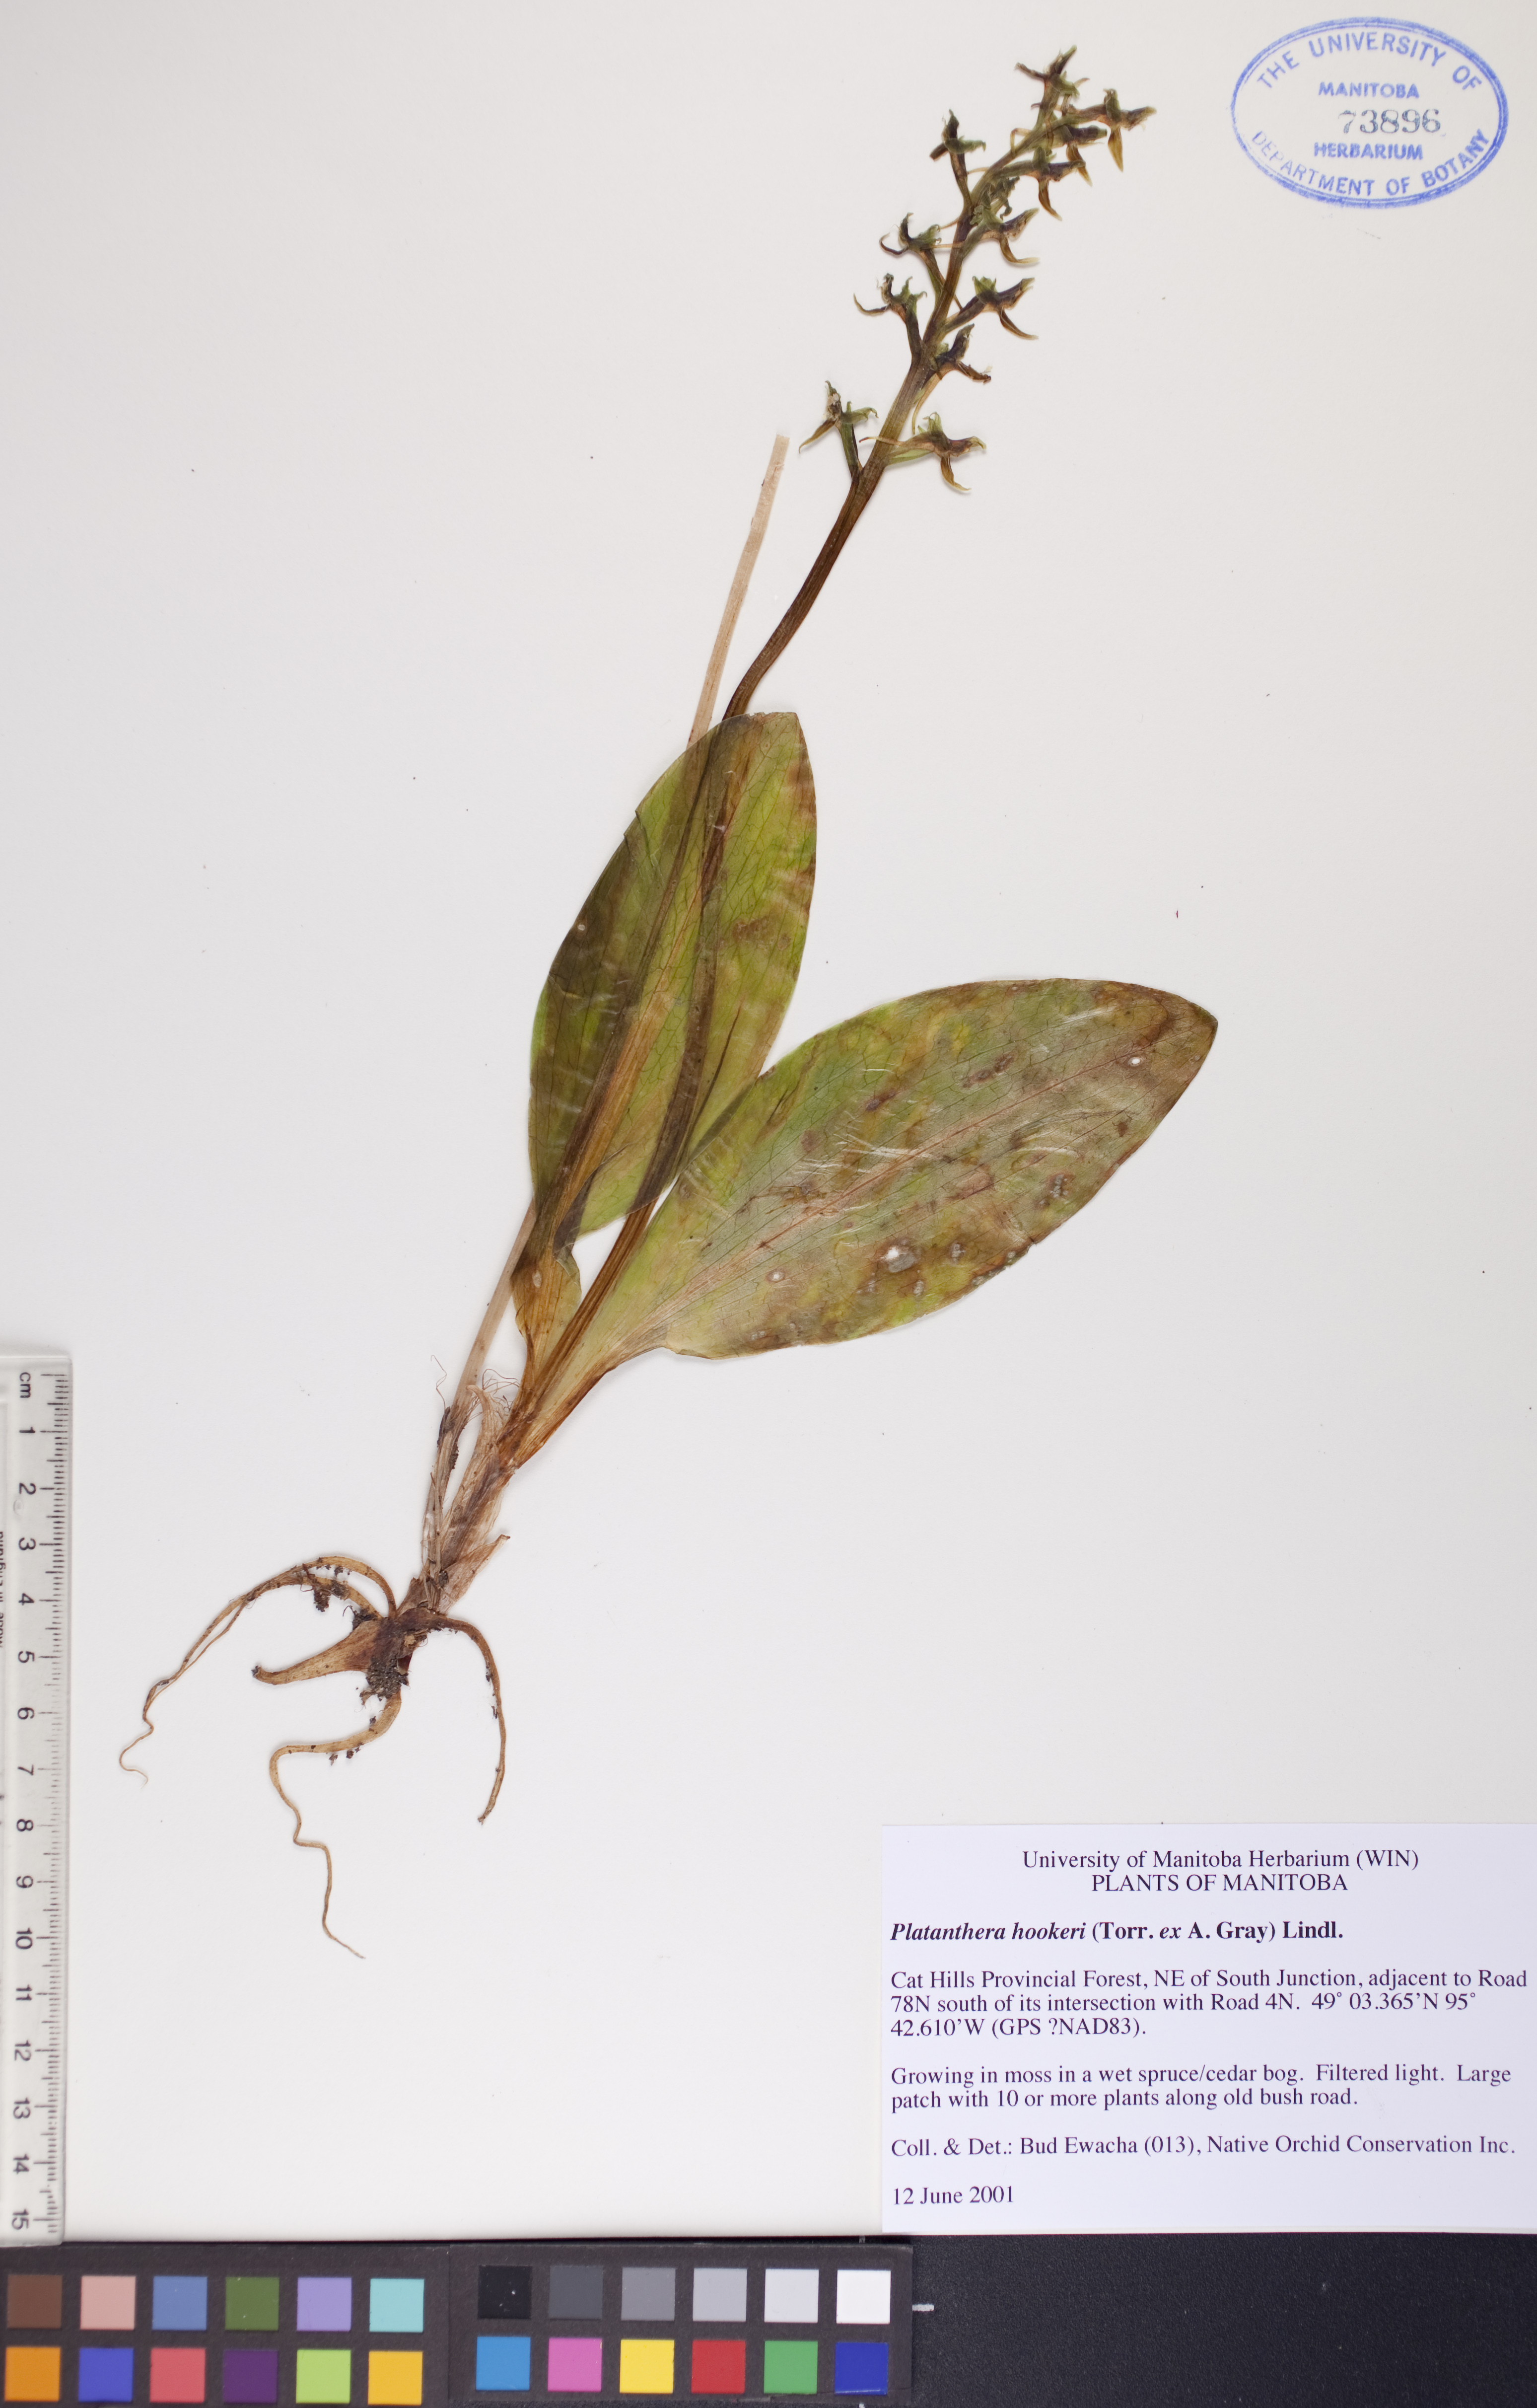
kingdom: Plantae
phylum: Tracheophyta
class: Liliopsida
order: Asparagales
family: Orchidaceae
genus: Platanthera
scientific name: Platanthera hookeri
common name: Hooker's orchid
